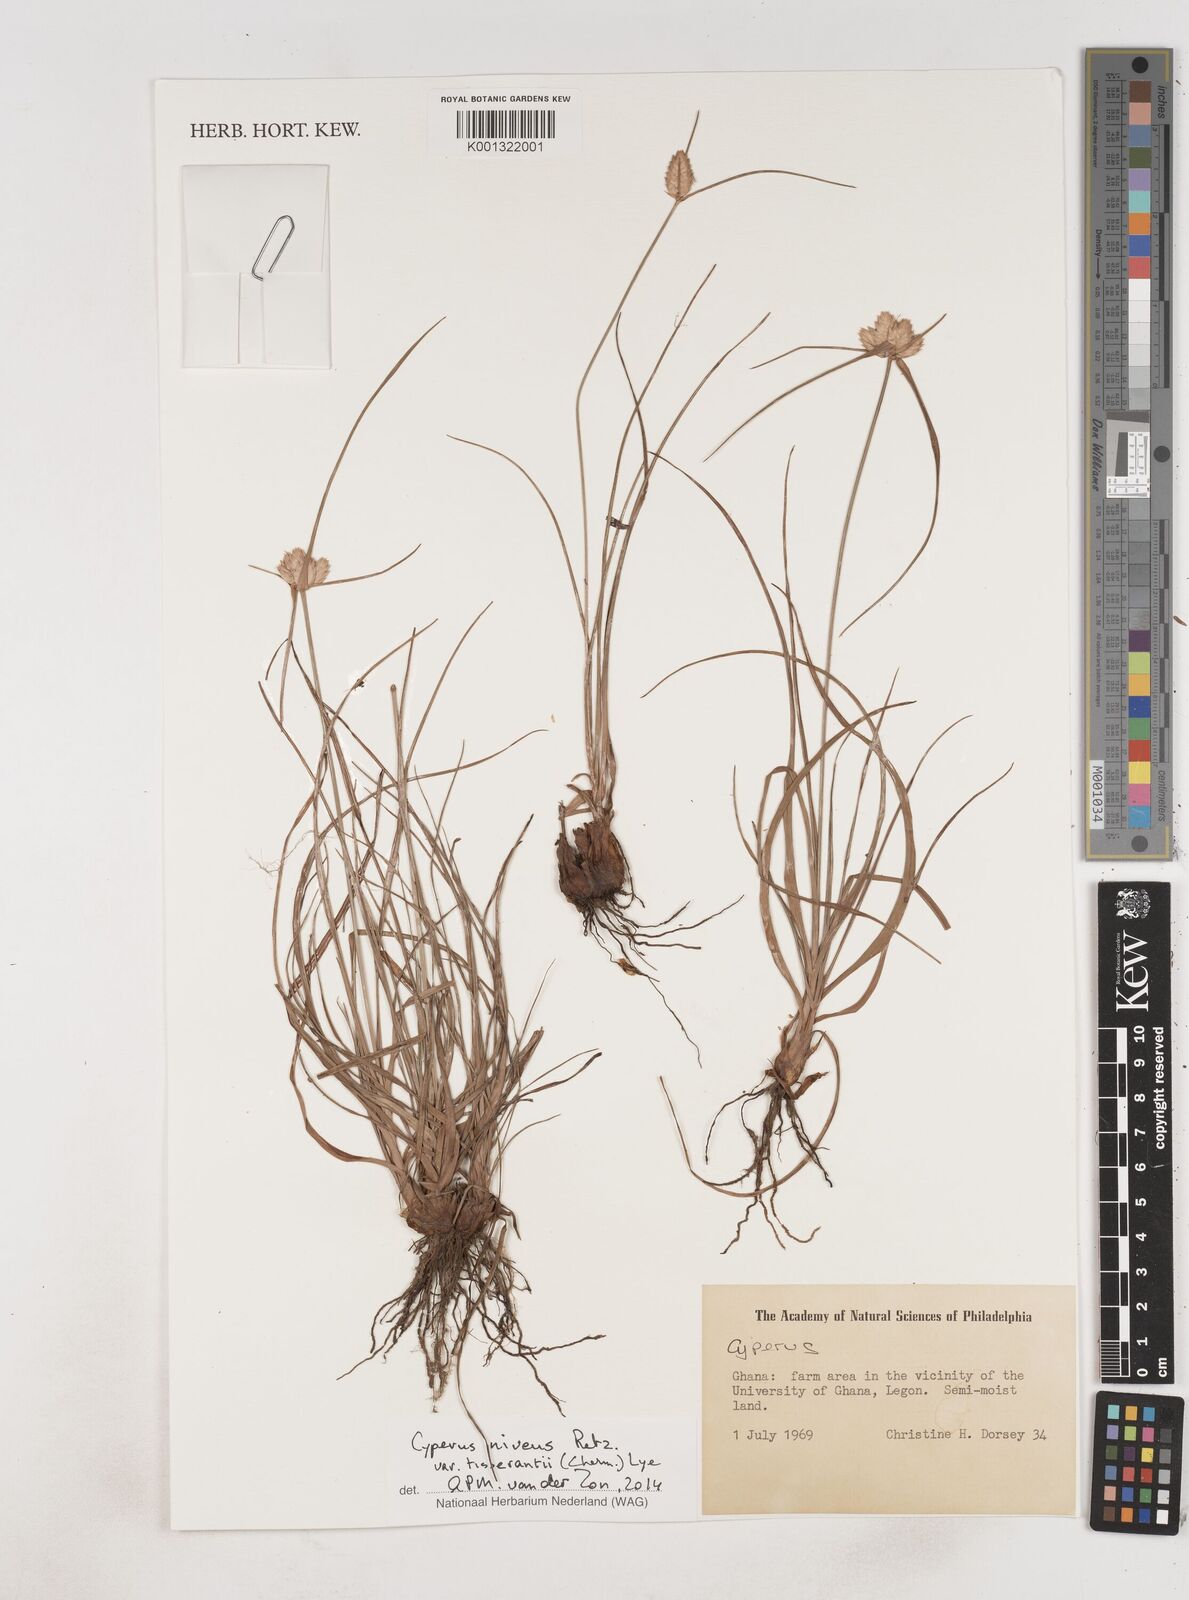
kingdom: Plantae
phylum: Tracheophyta
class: Liliopsida
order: Poales
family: Cyperaceae
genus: Cyperus
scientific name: Cyperus niveus
